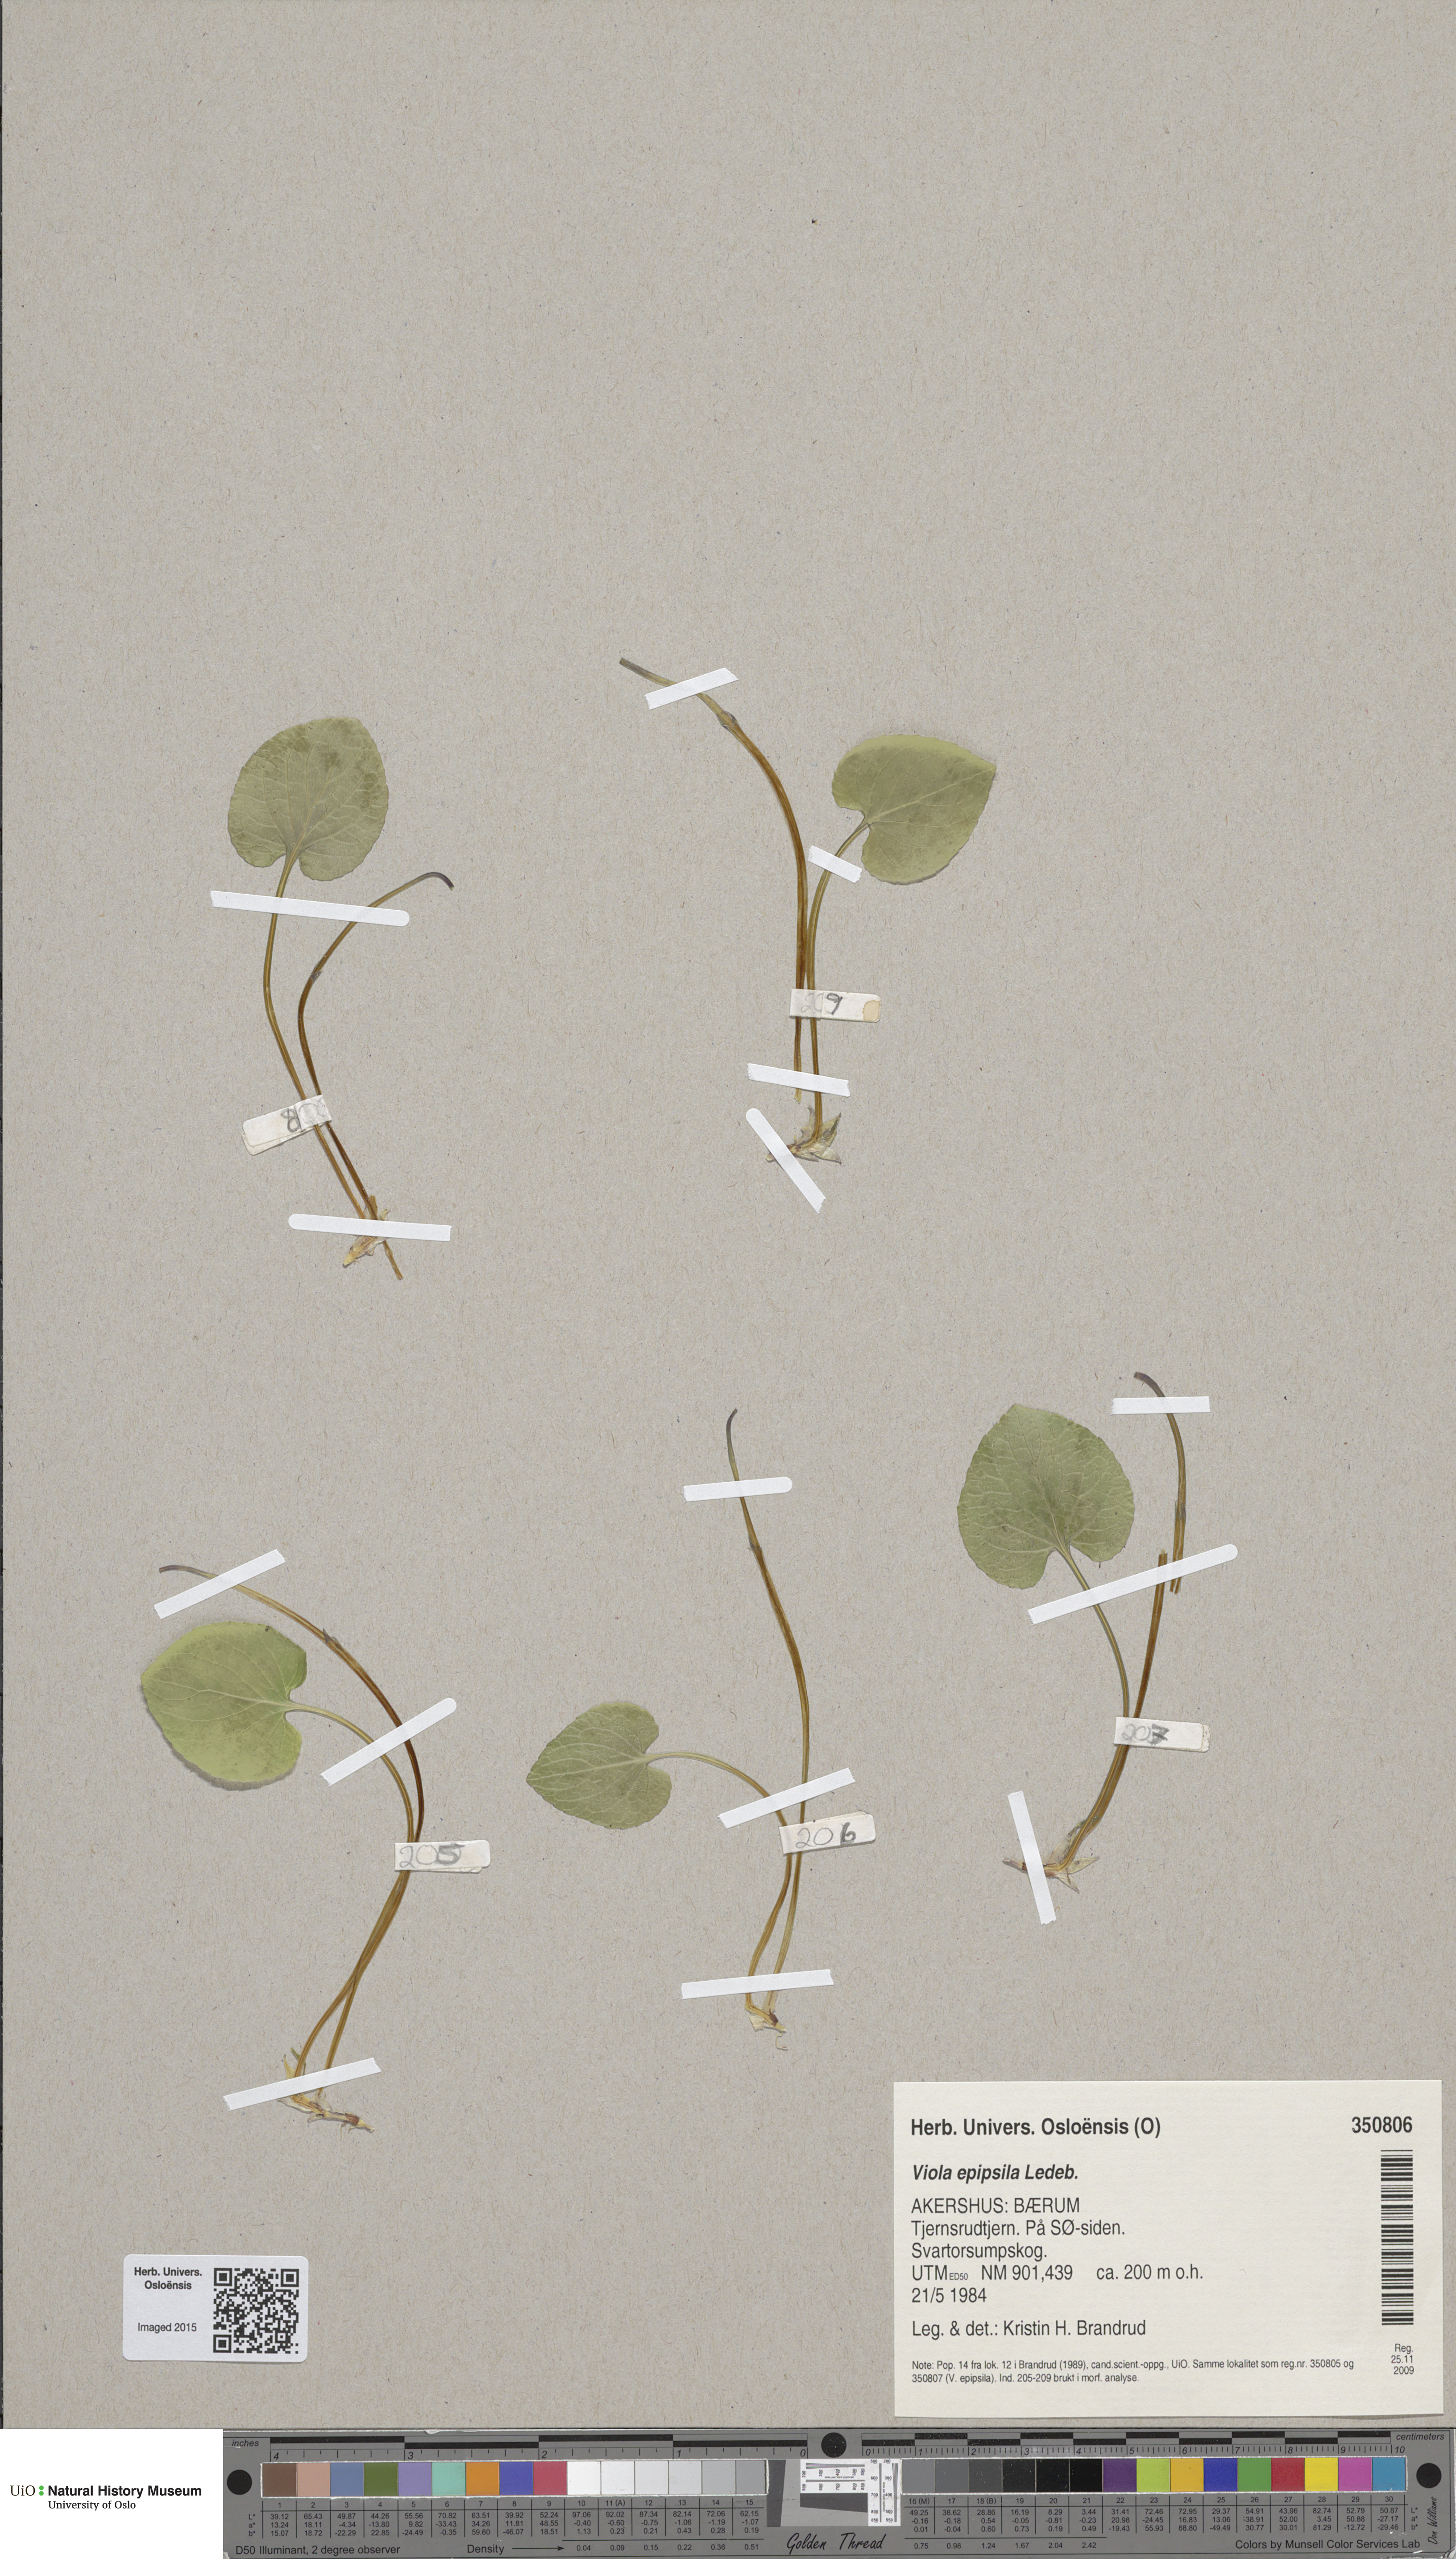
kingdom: Plantae
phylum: Tracheophyta
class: Magnoliopsida
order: Malpighiales
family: Violaceae
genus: Viola
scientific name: Viola epipsila
